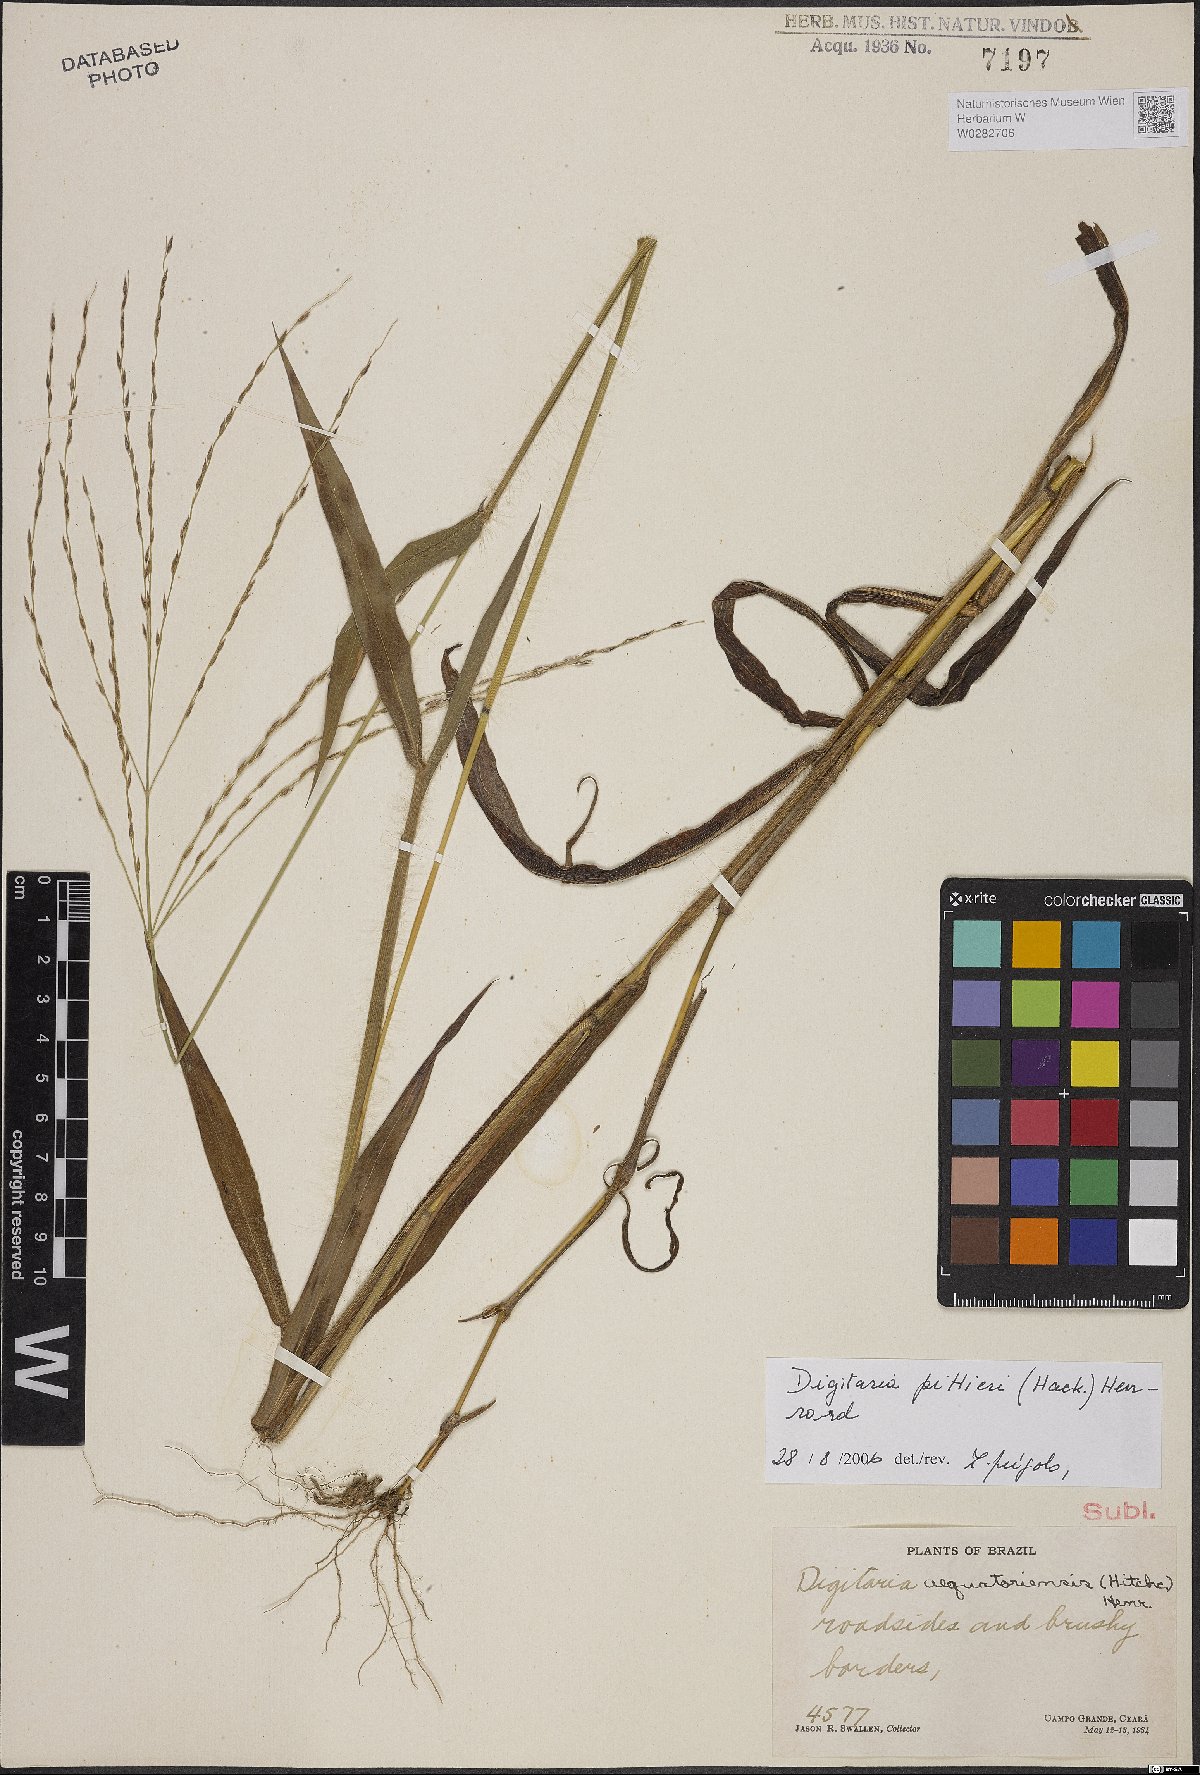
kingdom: Plantae
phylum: Tracheophyta
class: Liliopsida
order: Poales
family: Poaceae
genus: Digitaria
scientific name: Digitaria pittieri
